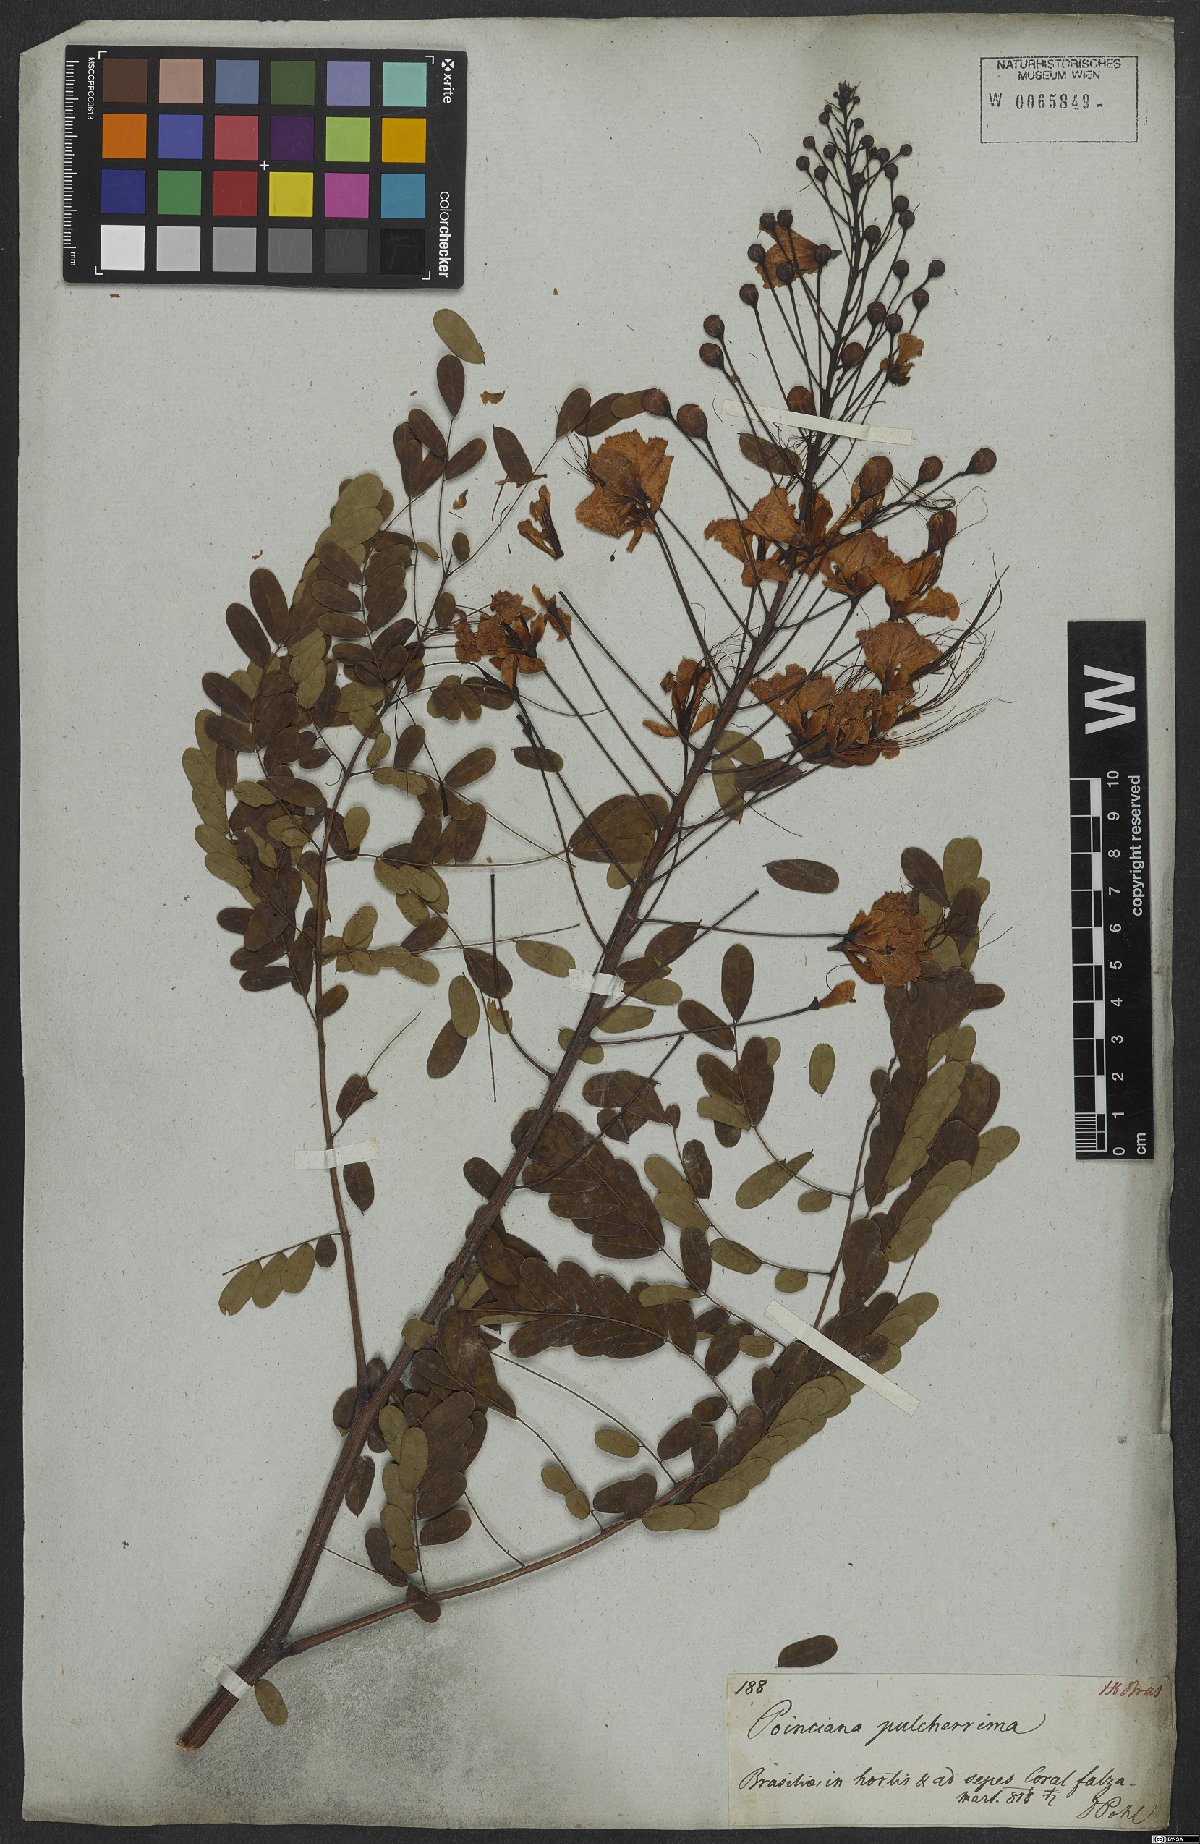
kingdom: Plantae
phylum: Tracheophyta
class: Magnoliopsida
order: Fabales
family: Fabaceae
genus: Caesalpinia
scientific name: Caesalpinia pulcherrima
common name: Pride-of-barbados
